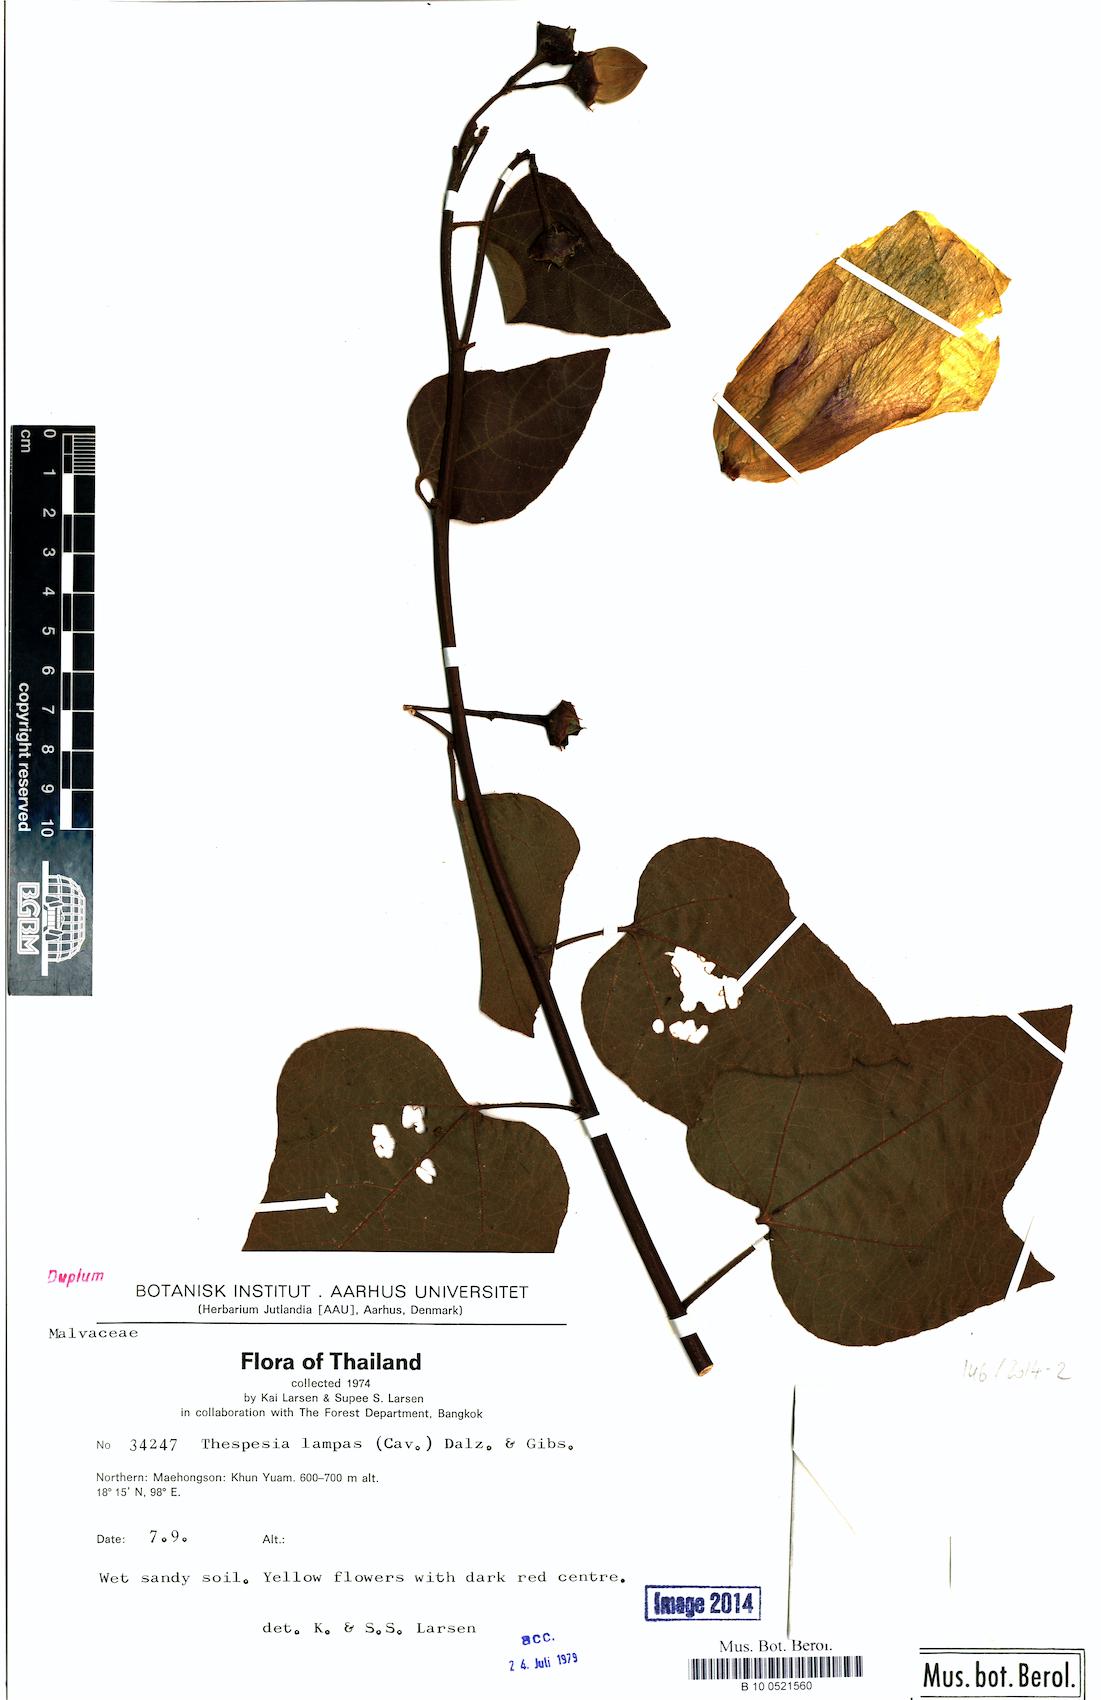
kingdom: Plantae
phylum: Tracheophyta
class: Magnoliopsida
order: Malvales
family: Malvaceae
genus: Thespesia
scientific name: Thespesia lampas
